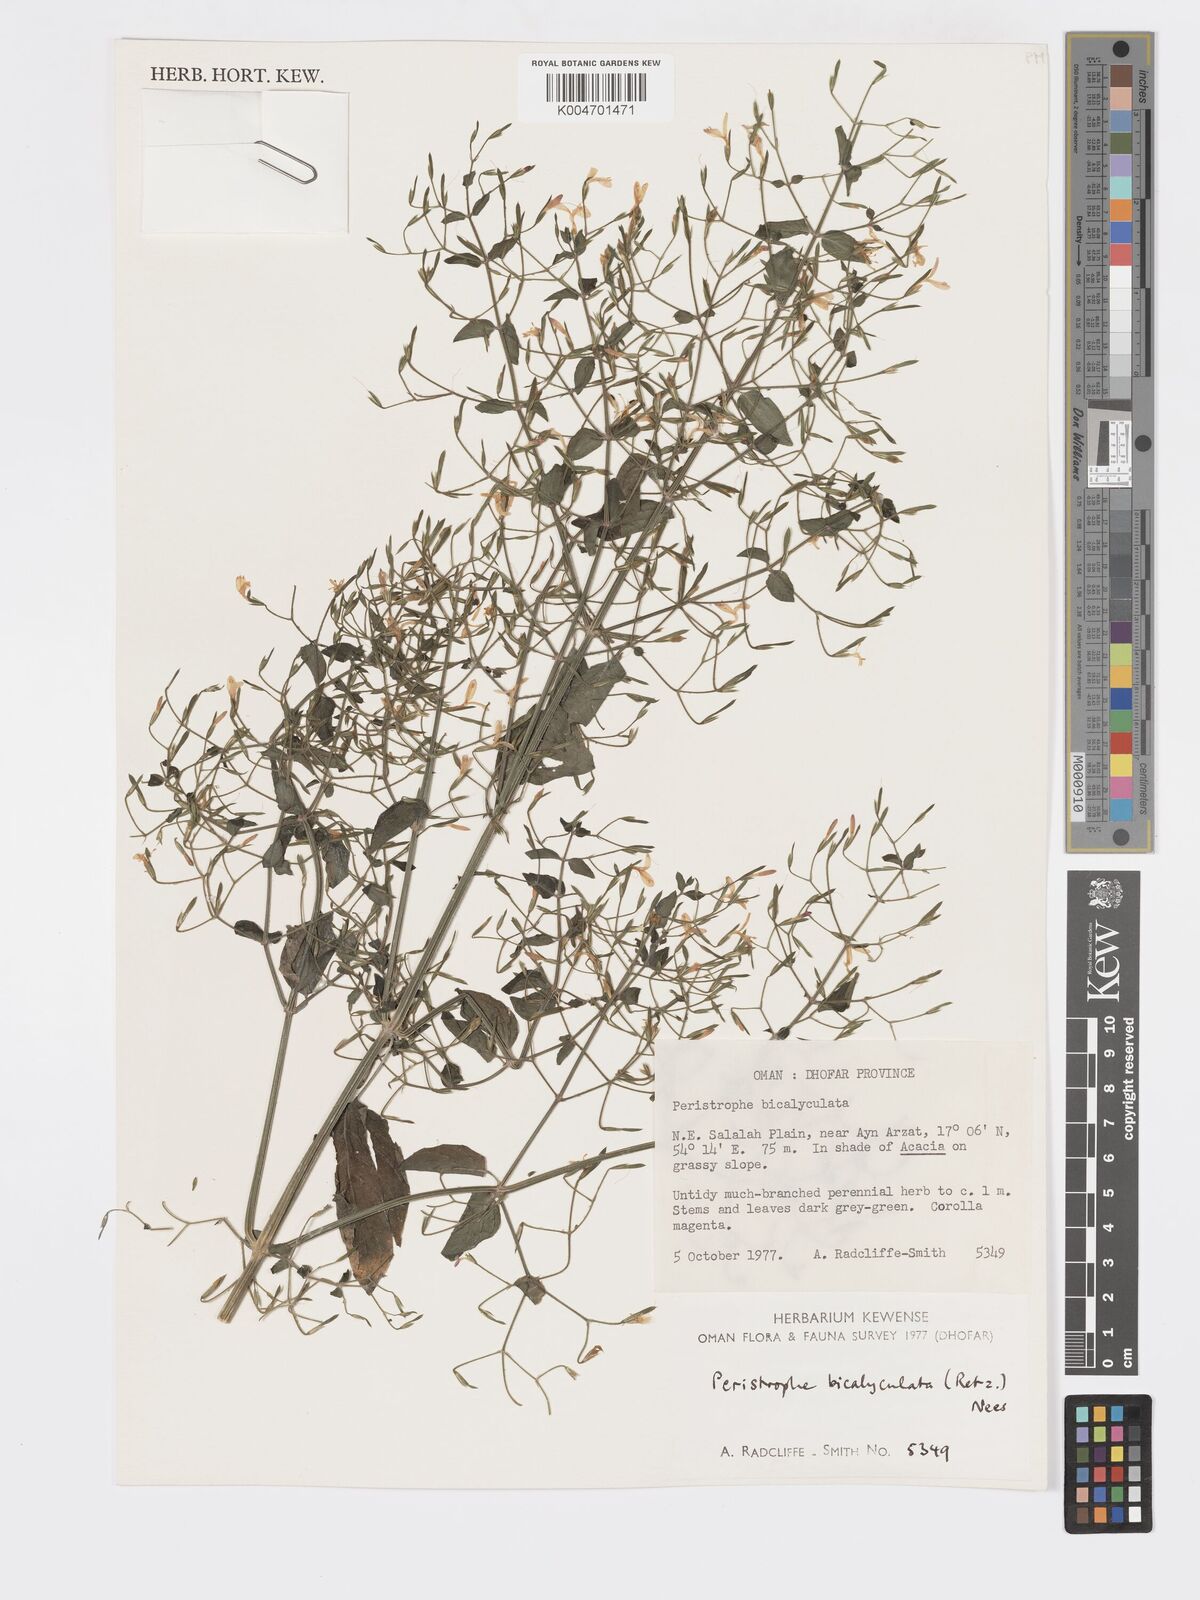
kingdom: Plantae
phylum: Tracheophyta
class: Magnoliopsida
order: Lamiales
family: Acanthaceae
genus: Dicliptera
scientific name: Dicliptera paniculata
